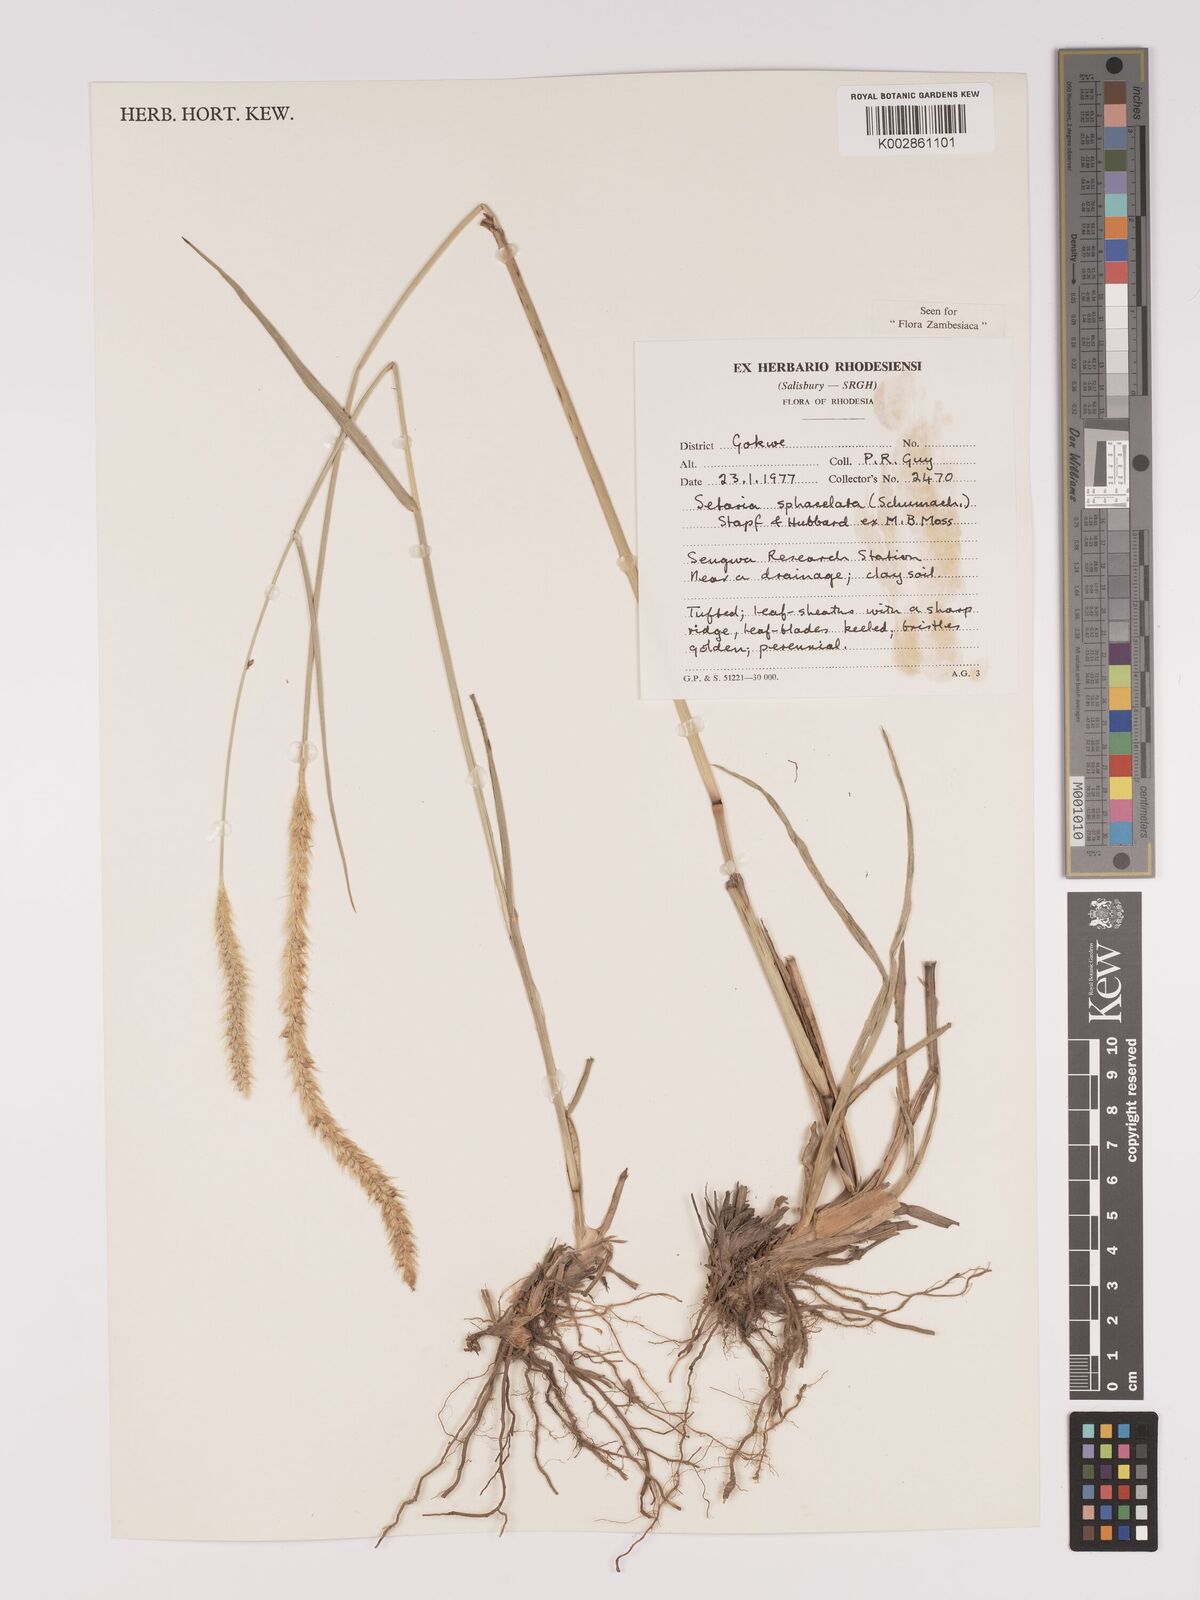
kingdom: Plantae
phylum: Tracheophyta
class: Liliopsida
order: Poales
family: Poaceae
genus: Setaria
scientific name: Setaria sphacelata
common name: African bristlegrass
